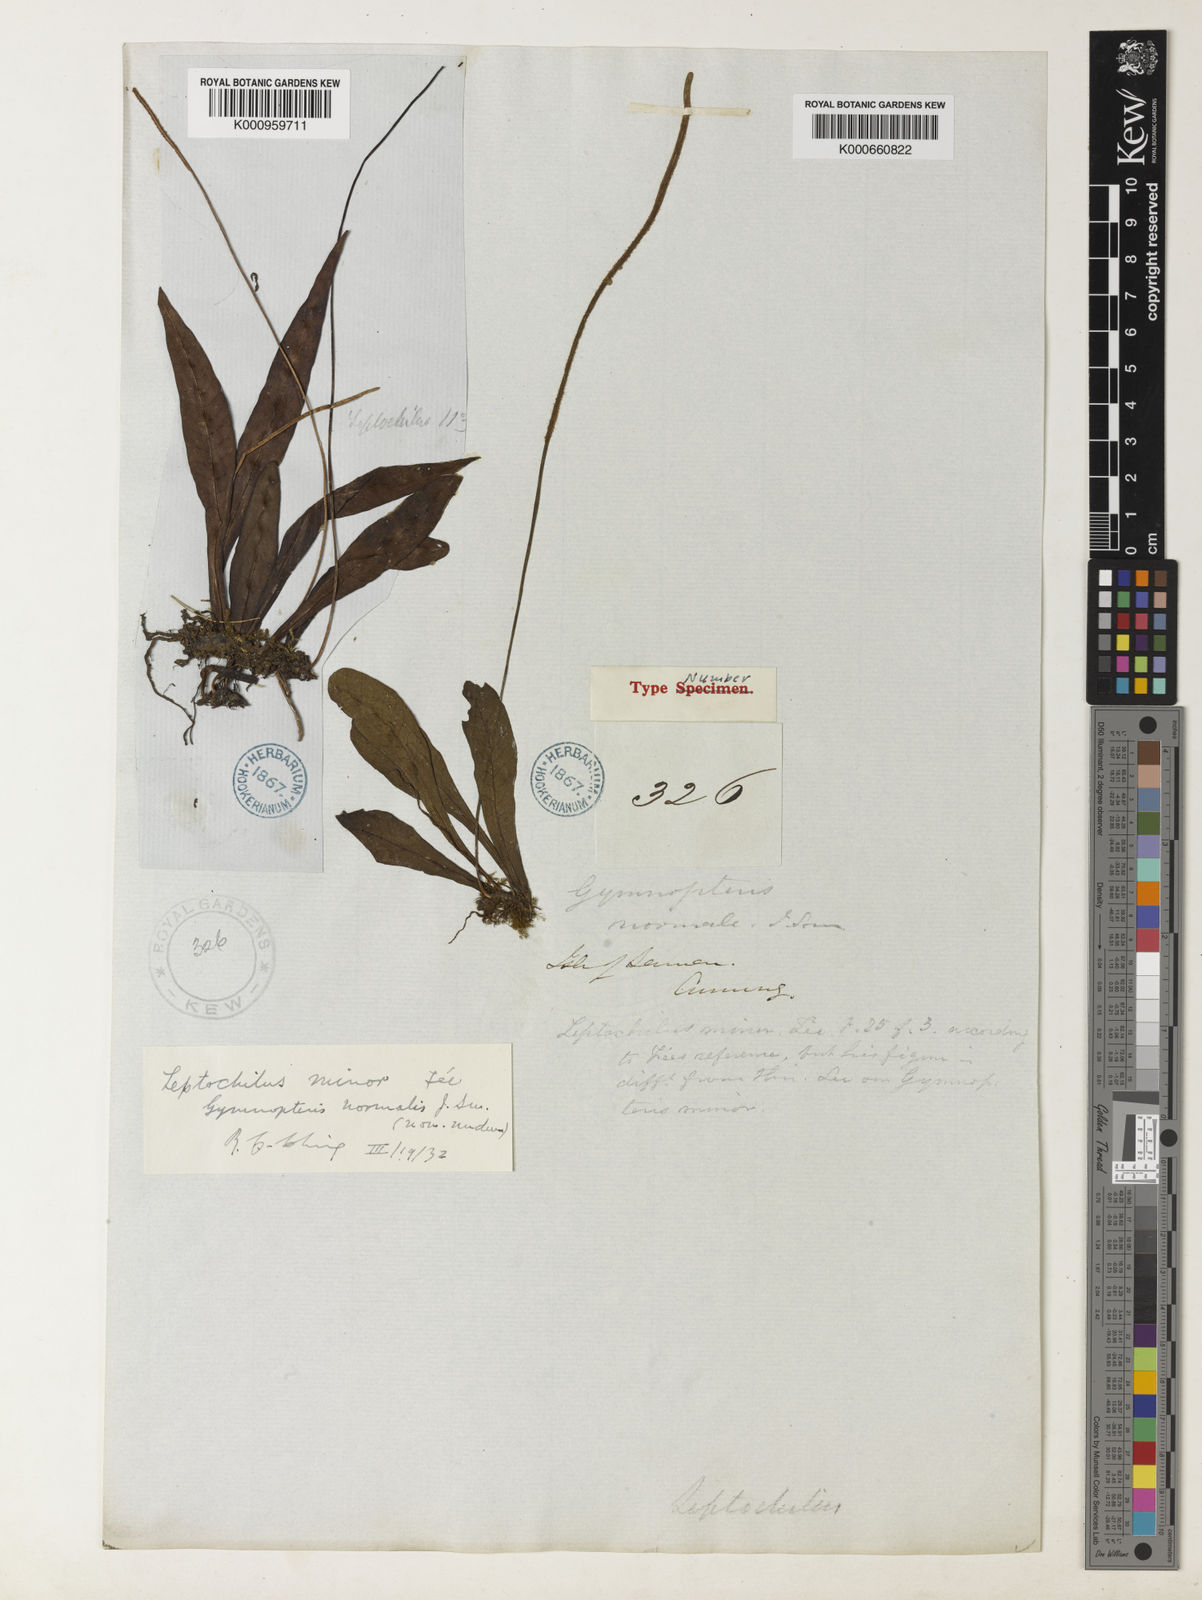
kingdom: Plantae
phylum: Tracheophyta
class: Polypodiopsida
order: Polypodiales
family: Polypodiaceae
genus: Leptochilus
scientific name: Leptochilus
